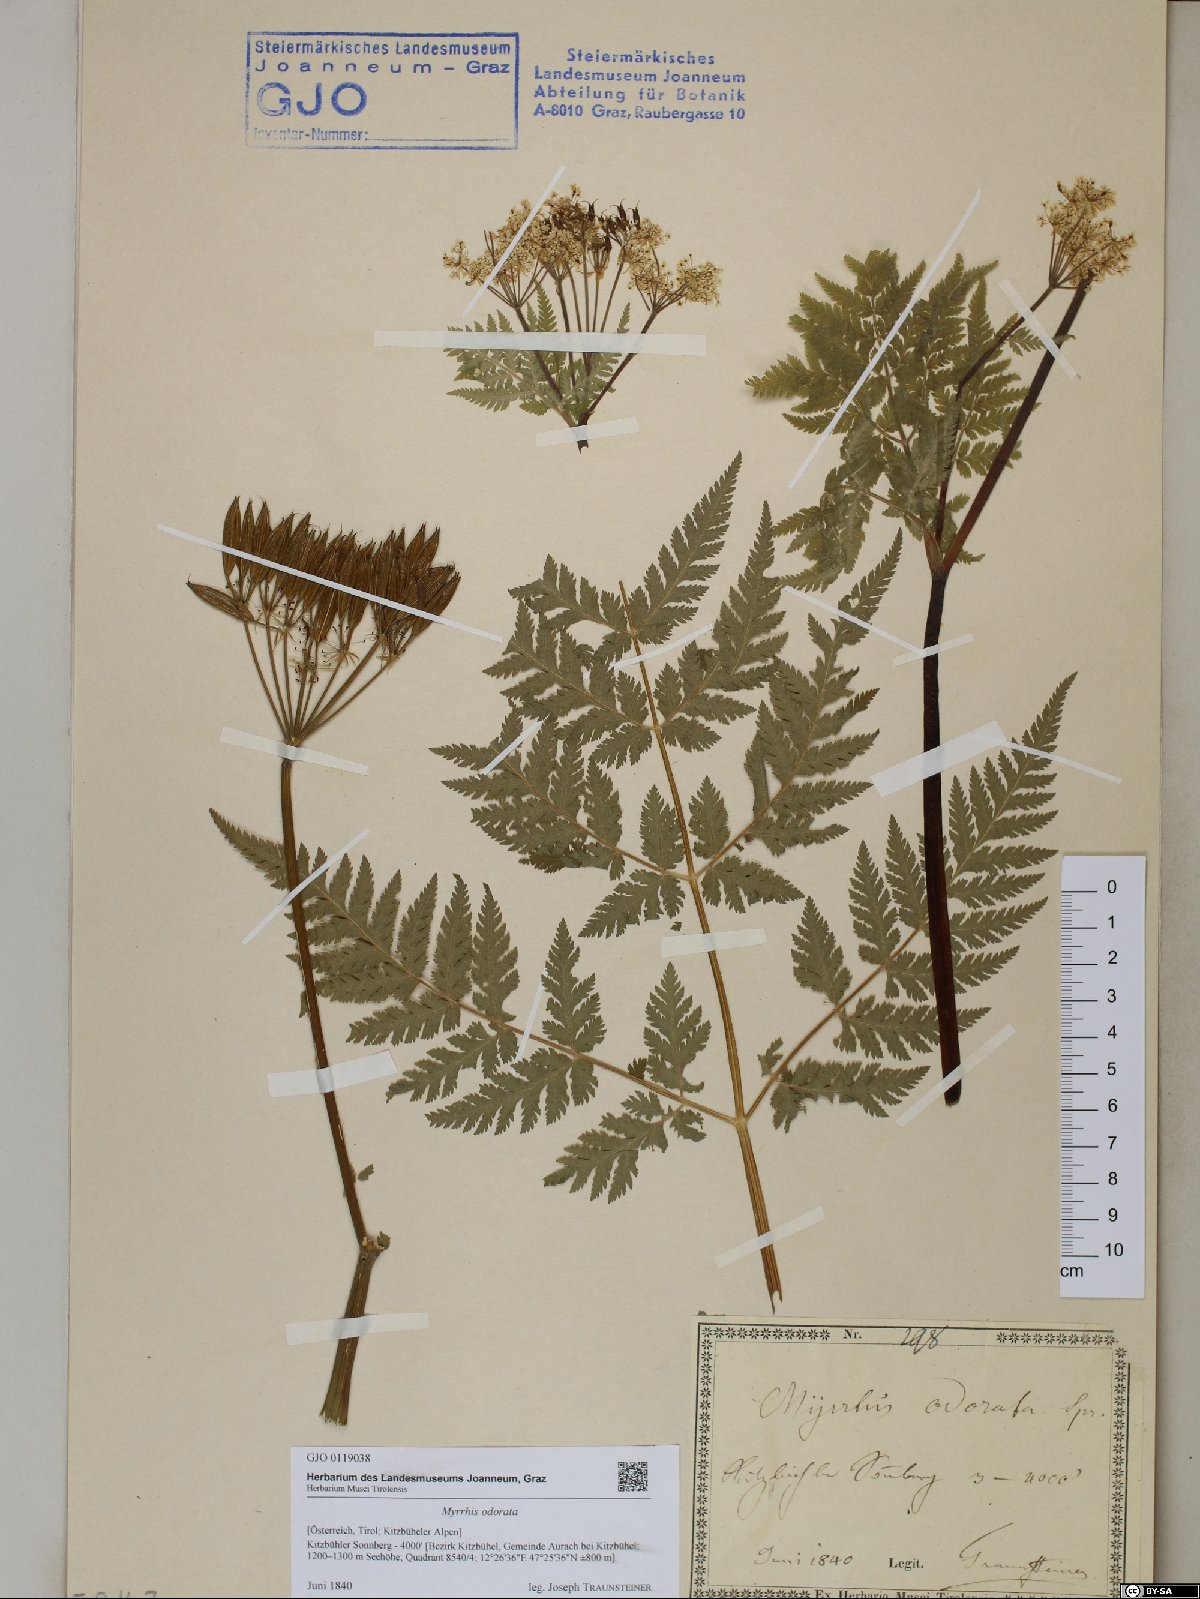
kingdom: Plantae
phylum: Tracheophyta
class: Magnoliopsida
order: Apiales
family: Apiaceae
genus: Myrrhis
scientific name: Myrrhis odorata
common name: Sweet cicely
